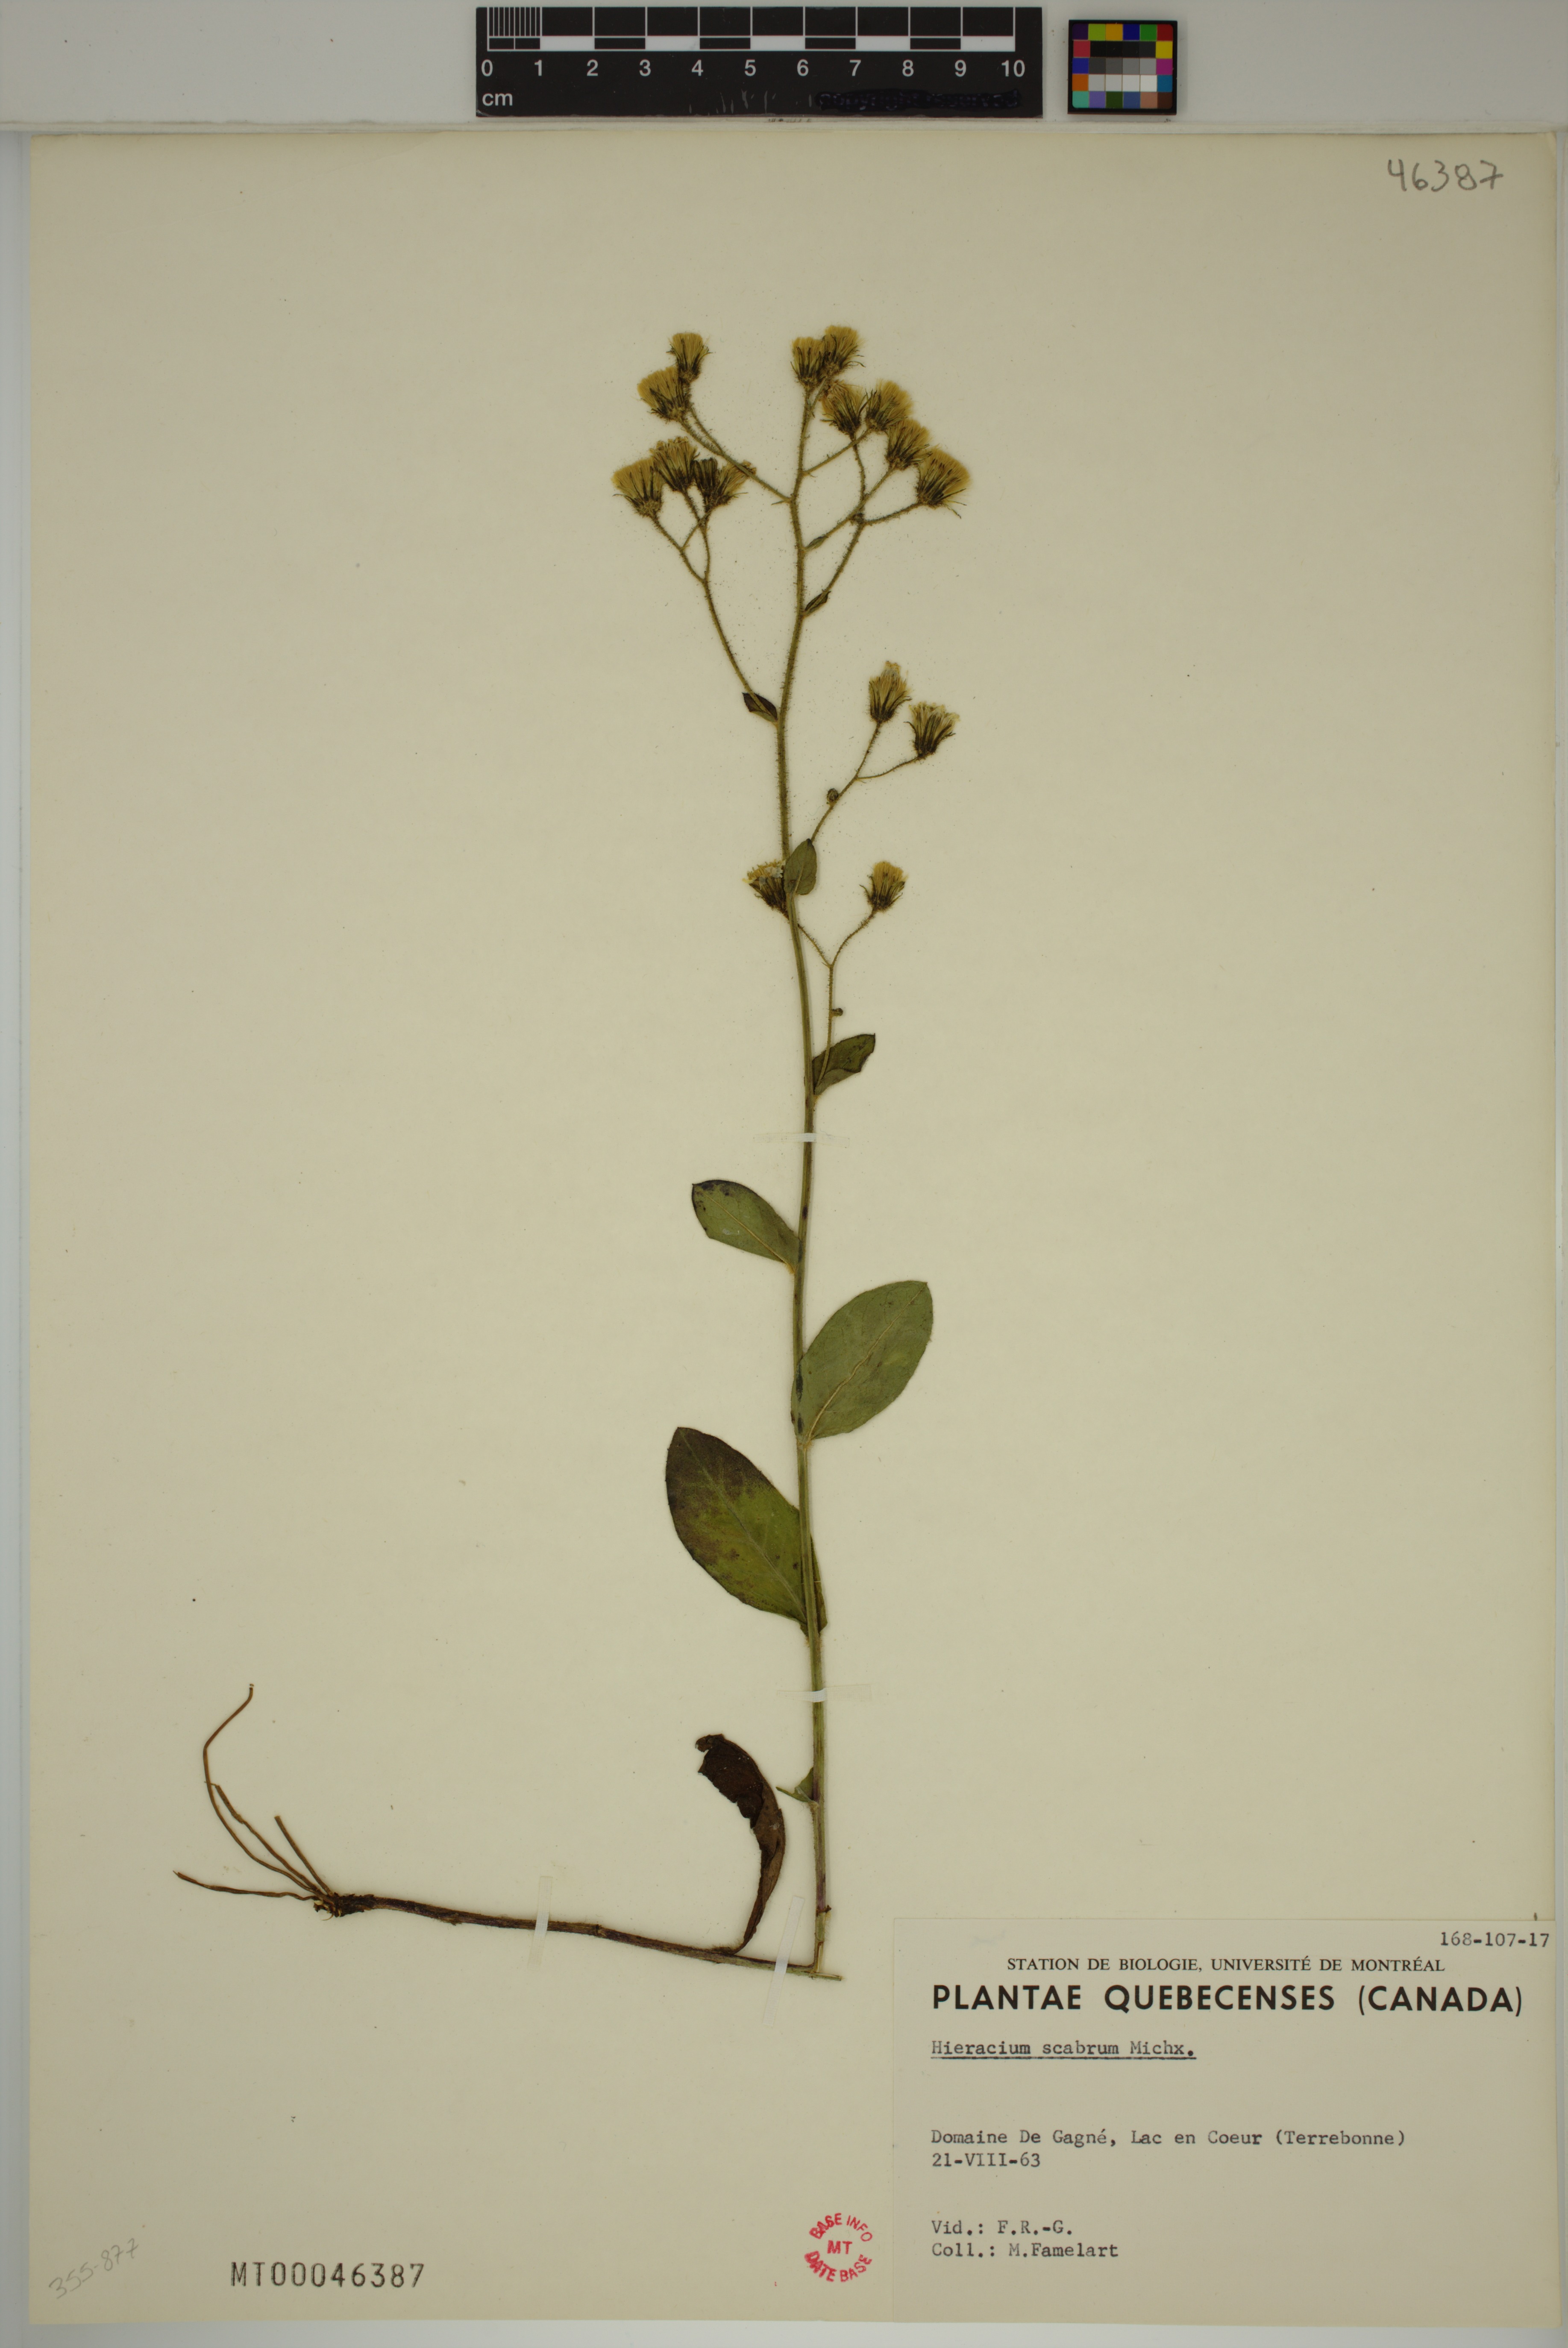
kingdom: Plantae
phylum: Tracheophyta
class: Magnoliopsida
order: Asterales
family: Asteraceae
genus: Hieracium
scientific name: Hieracium scabrum
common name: Rough hawkweed
